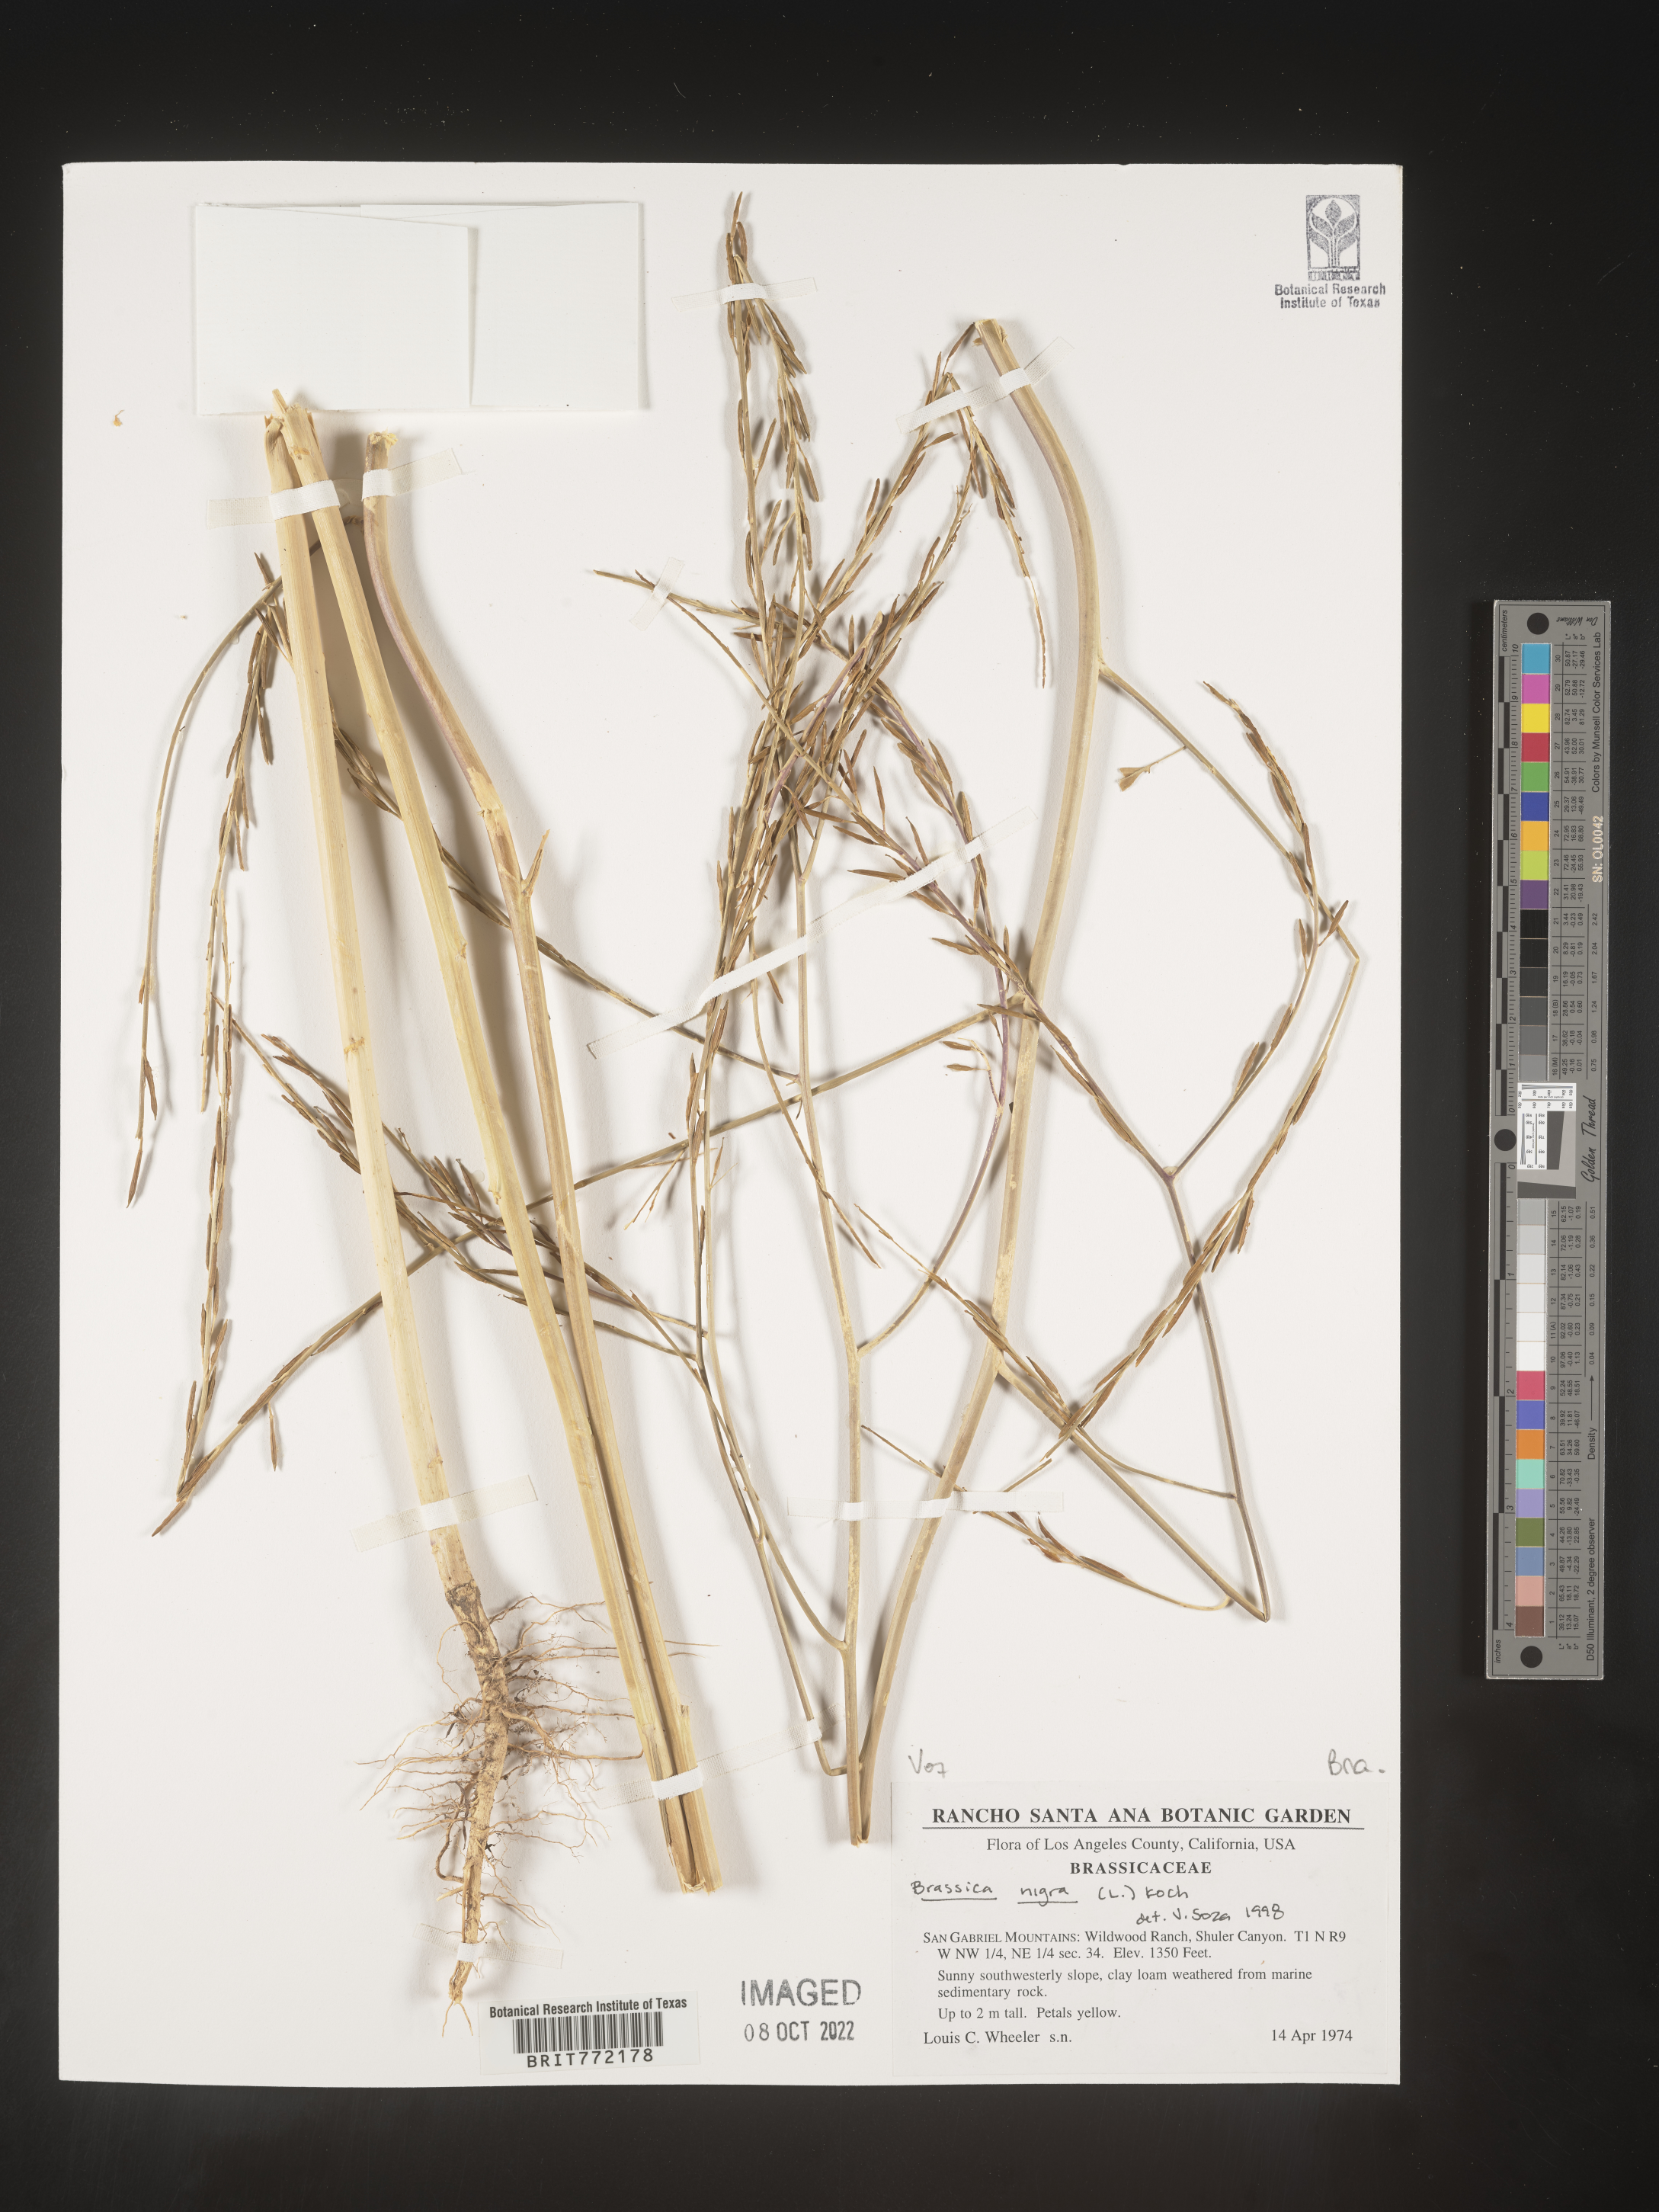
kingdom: Plantae
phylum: Tracheophyta
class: Magnoliopsida
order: Brassicales
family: Brassicaceae
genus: Brassica
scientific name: Brassica nigra
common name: Black mustard
